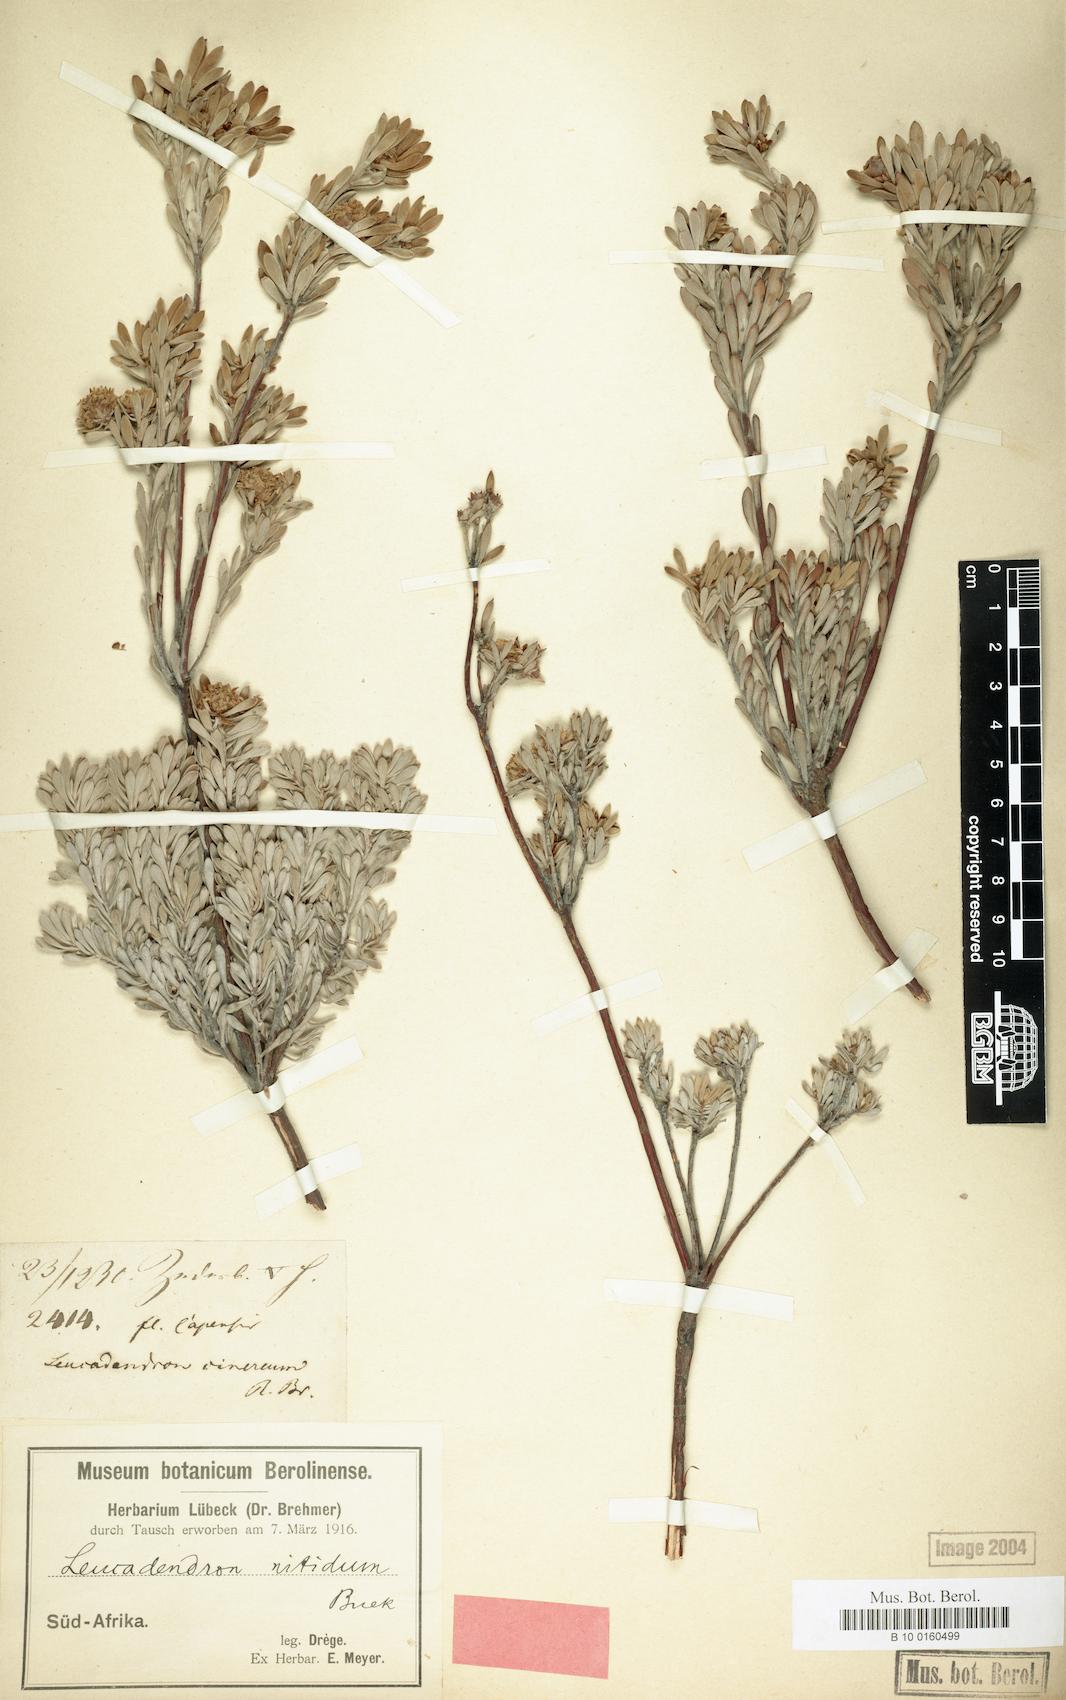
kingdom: Plantae
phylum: Tracheophyta
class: Magnoliopsida
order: Proteales
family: Proteaceae
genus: Leucadendron
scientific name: Leucadendron nitidum
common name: Bokkeveld conebush
